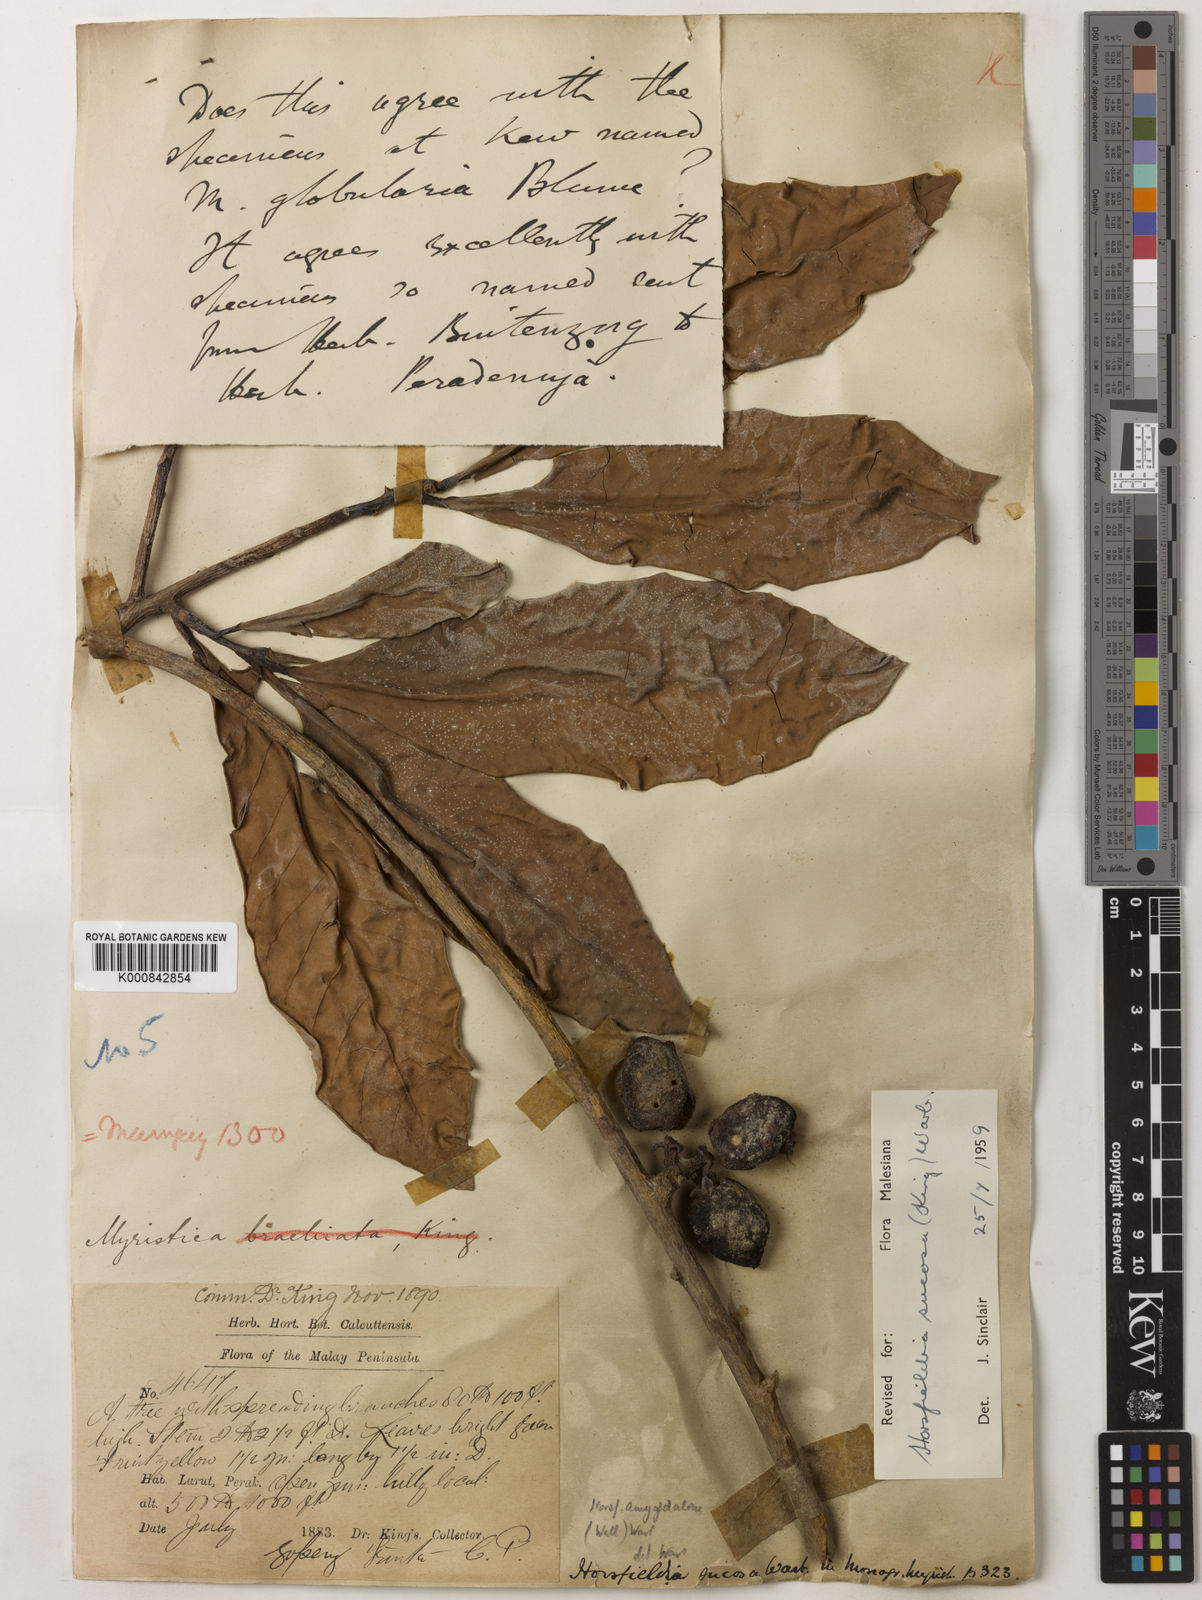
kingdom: Plantae
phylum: Tracheophyta
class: Magnoliopsida
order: Magnoliales
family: Myristicaceae
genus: Horsfieldia
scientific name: Horsfieldia sucosa
